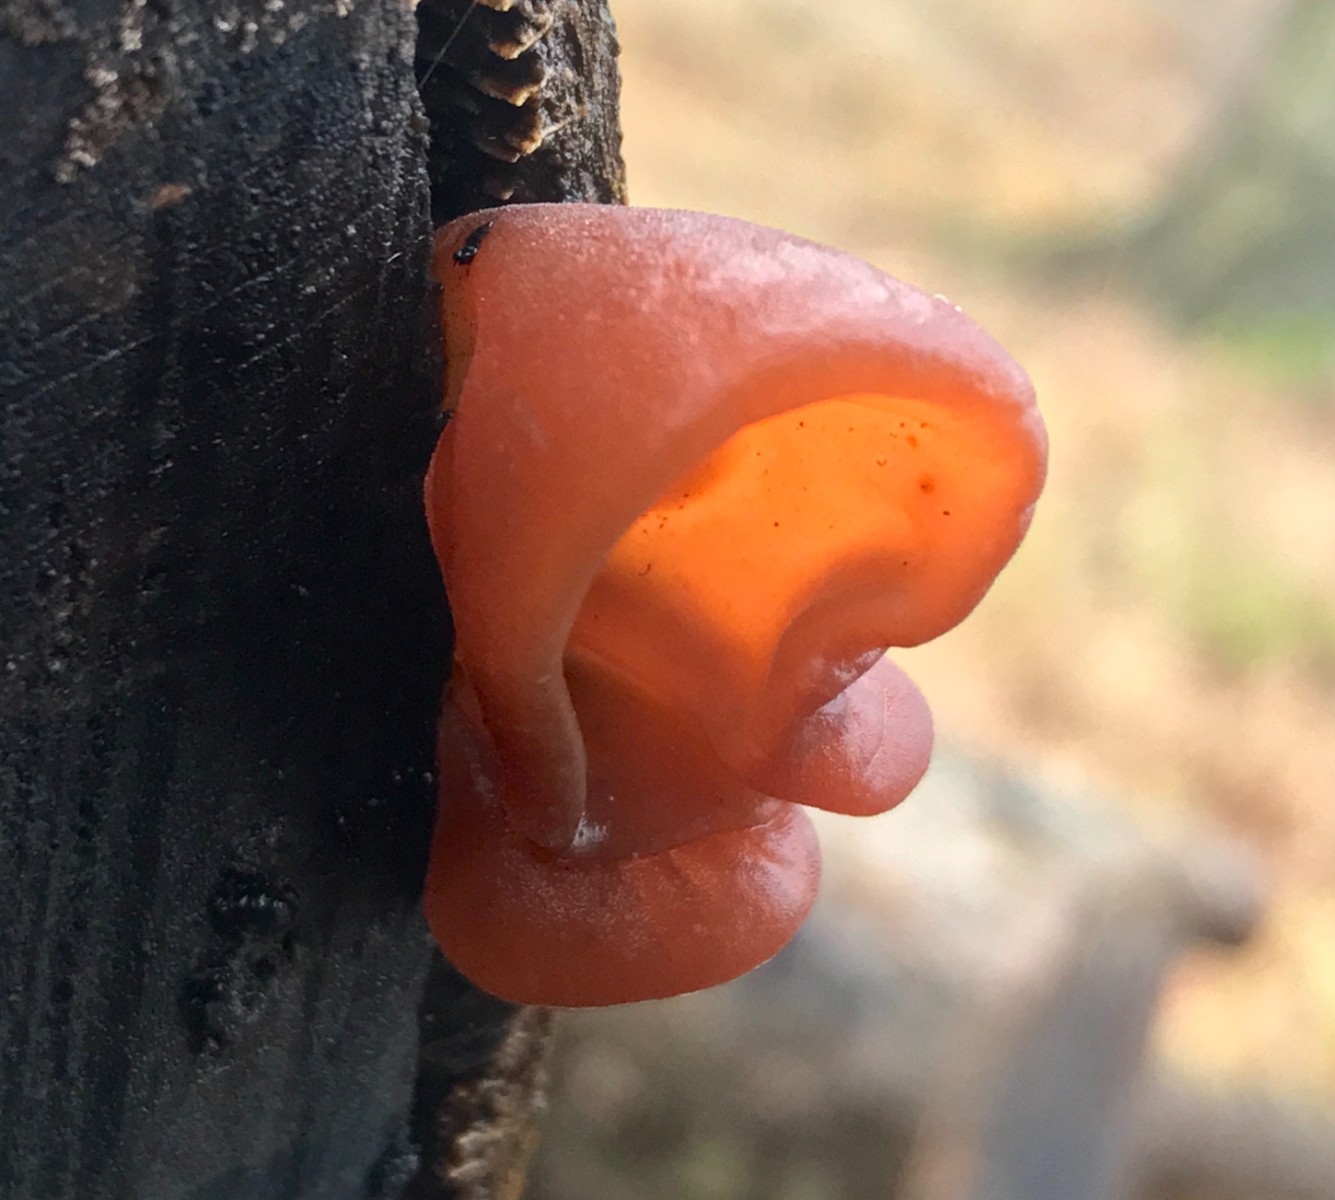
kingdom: Fungi
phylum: Basidiomycota
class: Agaricomycetes
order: Auriculariales
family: Auriculariaceae
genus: Auricularia
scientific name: Auricularia auricula-judae
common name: almindelig judasøre
